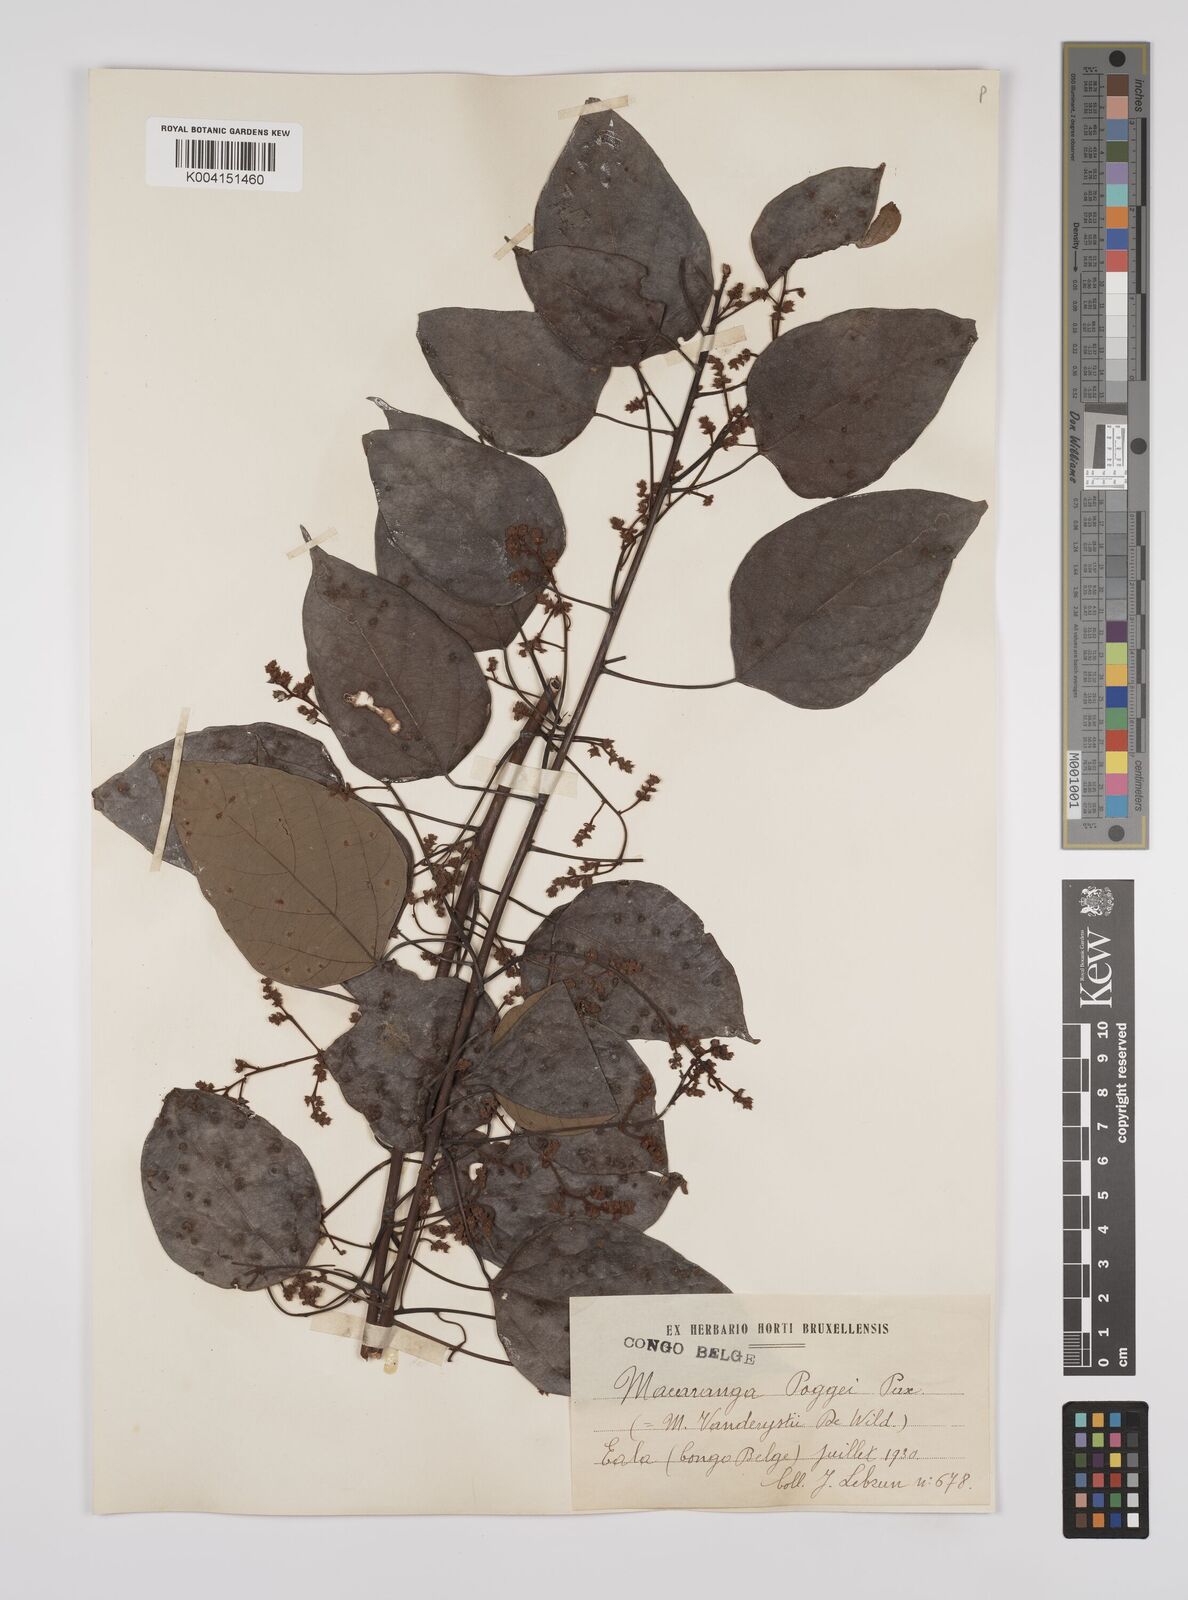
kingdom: Plantae
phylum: Tracheophyta
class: Magnoliopsida
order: Malpighiales
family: Euphorbiaceae
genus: Macaranga
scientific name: Macaranga poggei
